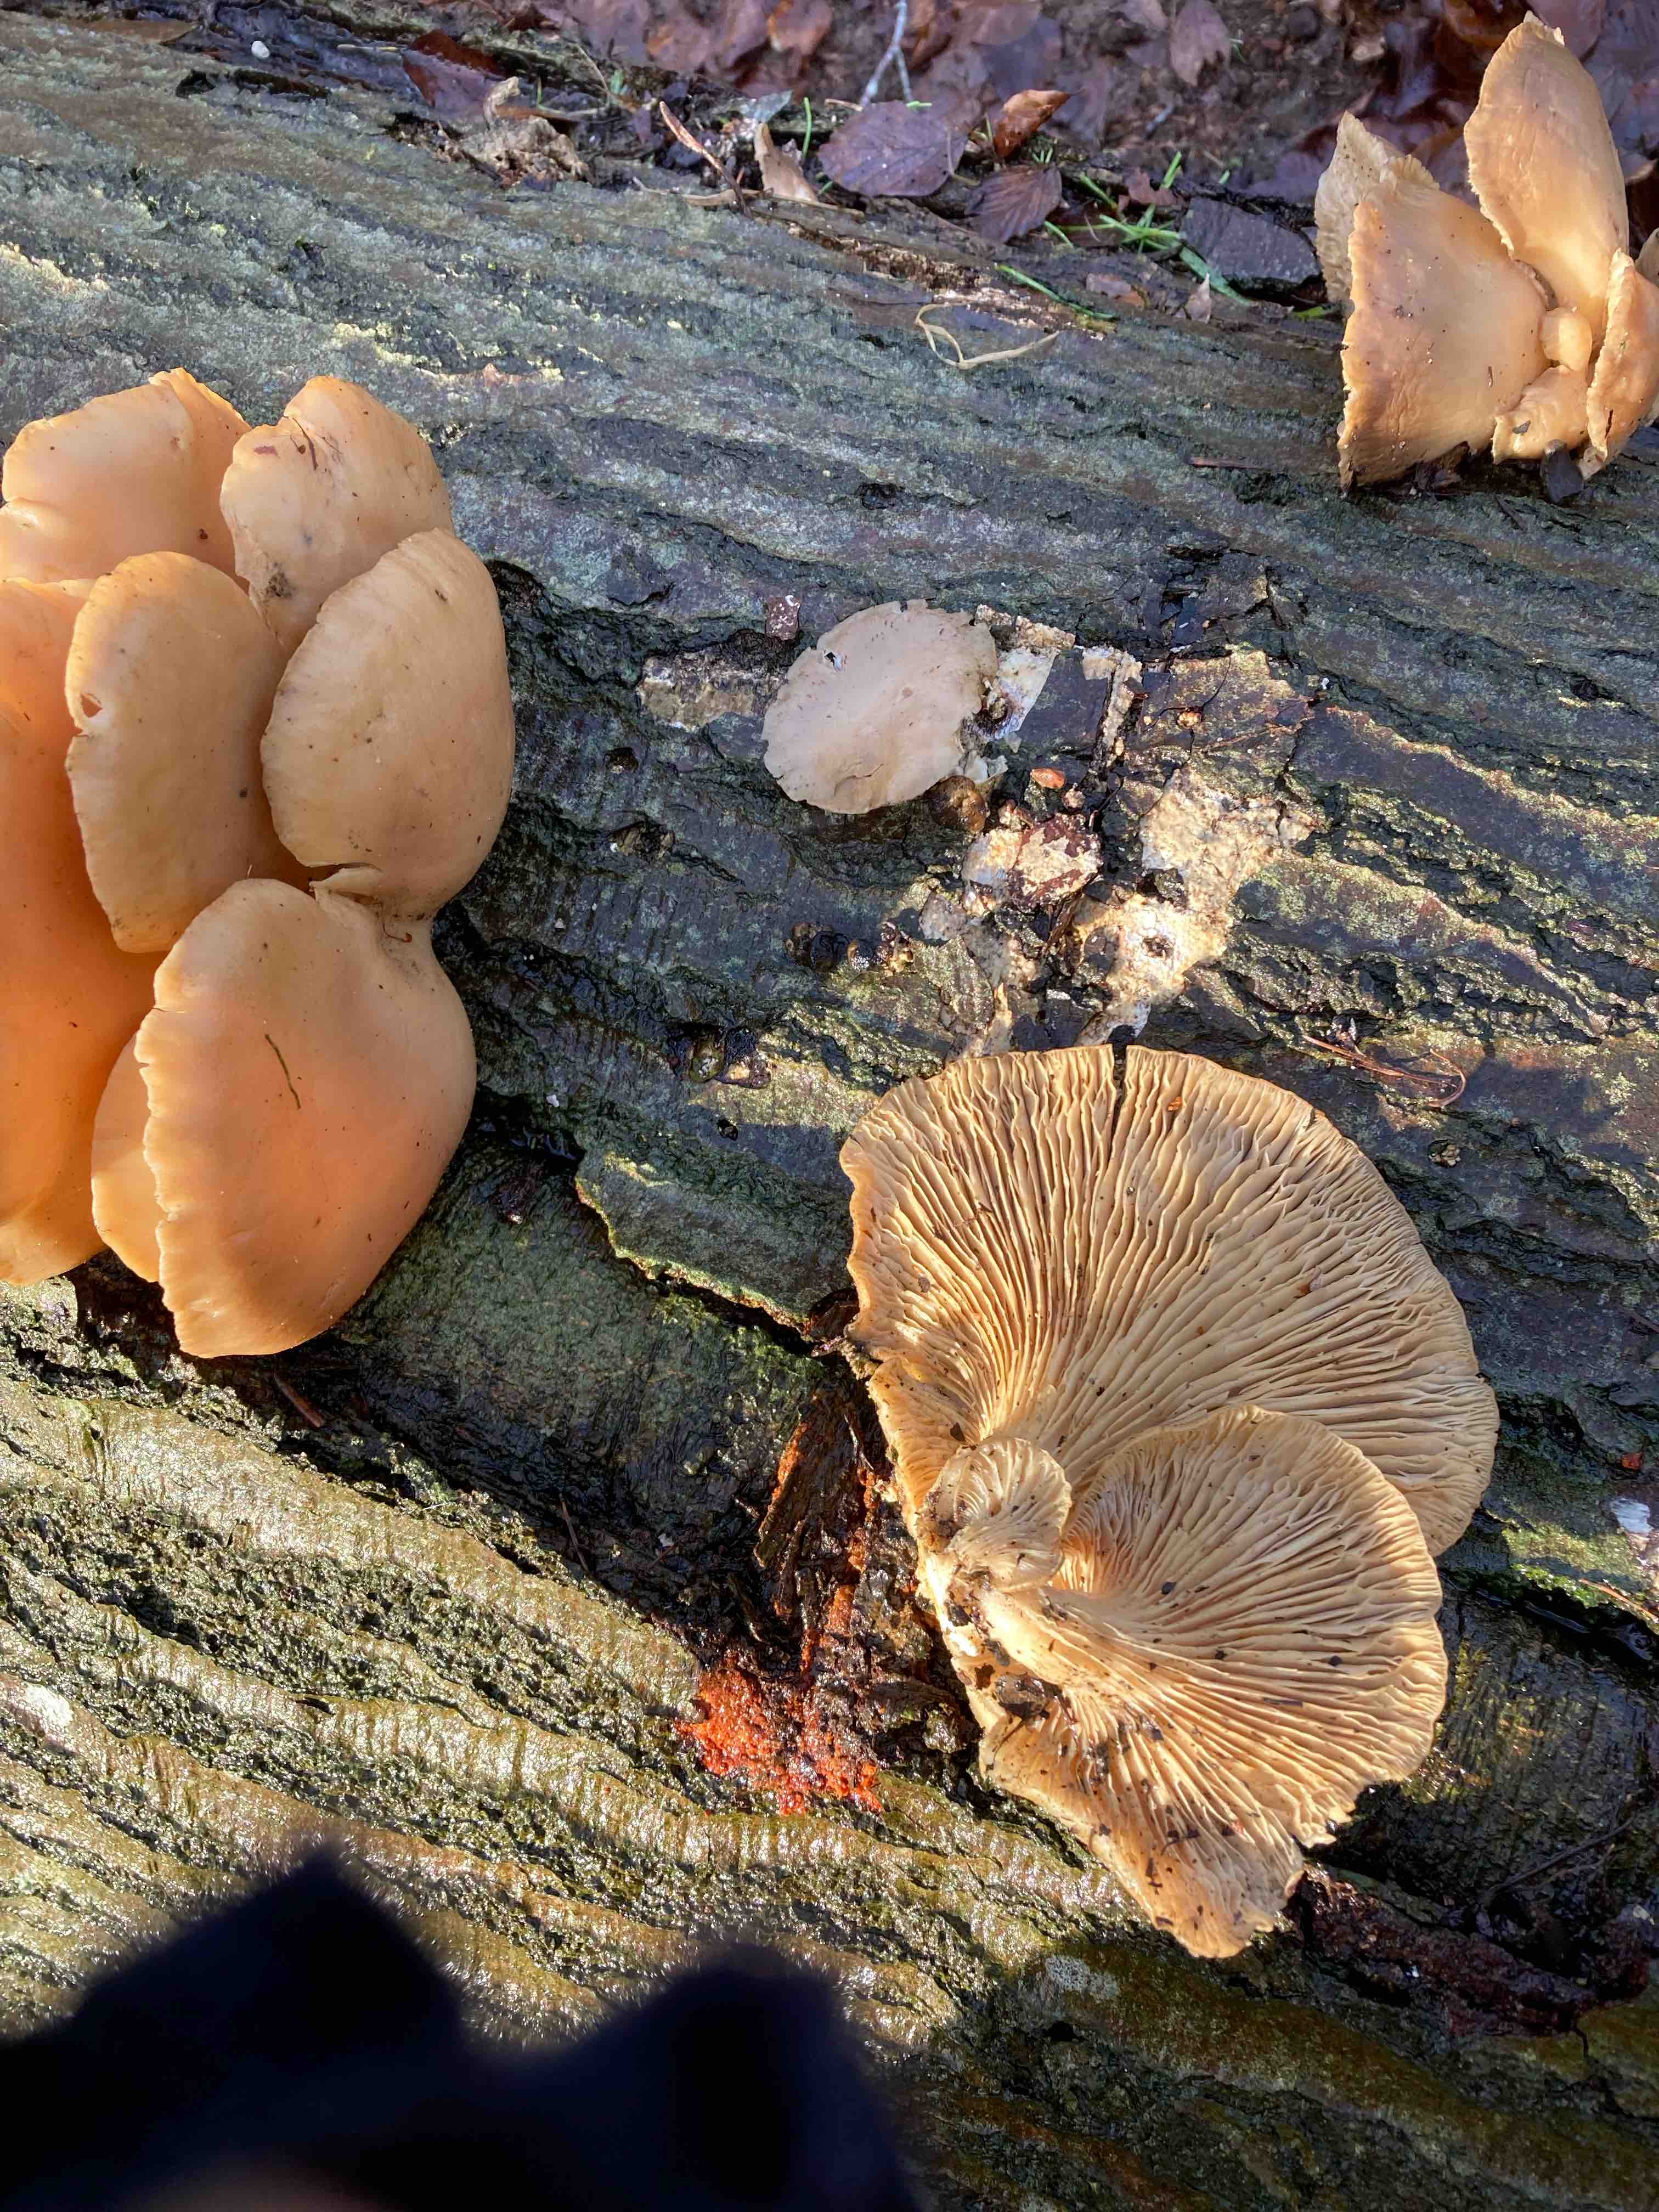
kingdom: Fungi
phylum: Basidiomycota
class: Agaricomycetes
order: Agaricales
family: Pleurotaceae
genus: Pleurotus
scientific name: Pleurotus ostreatus
